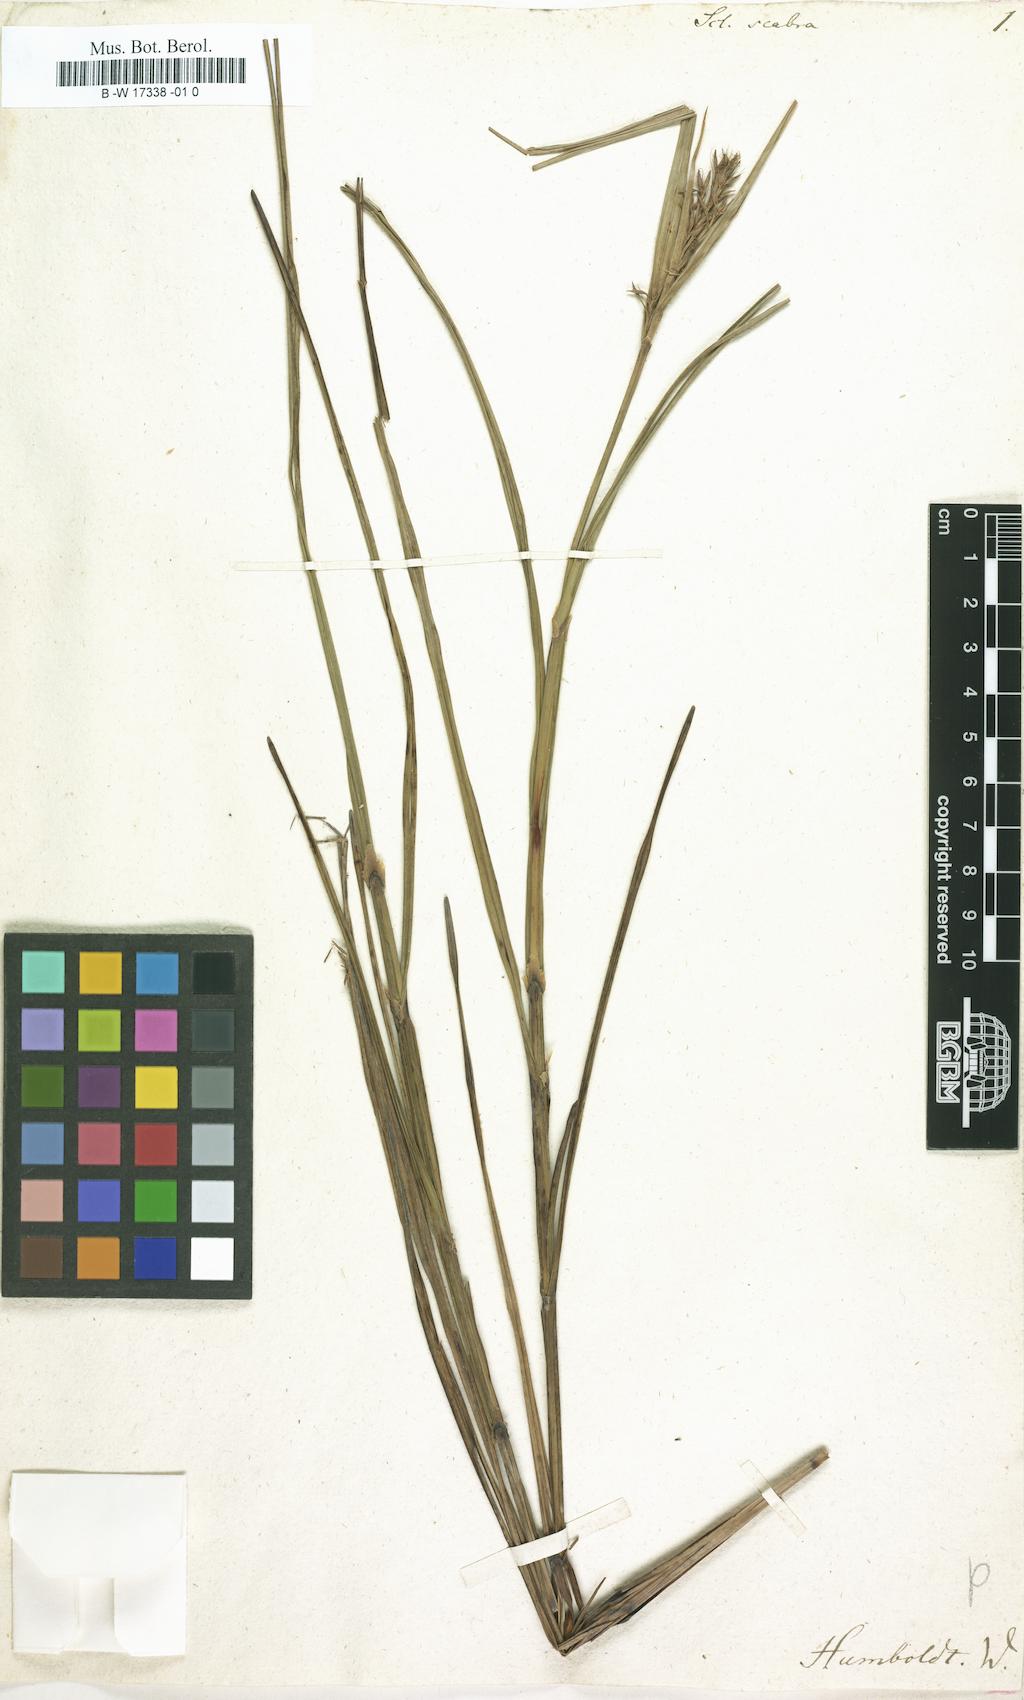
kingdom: Plantae
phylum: Tracheophyta
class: Liliopsida
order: Poales
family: Cyperaceae
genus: Scleria
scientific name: Scleria scabra
